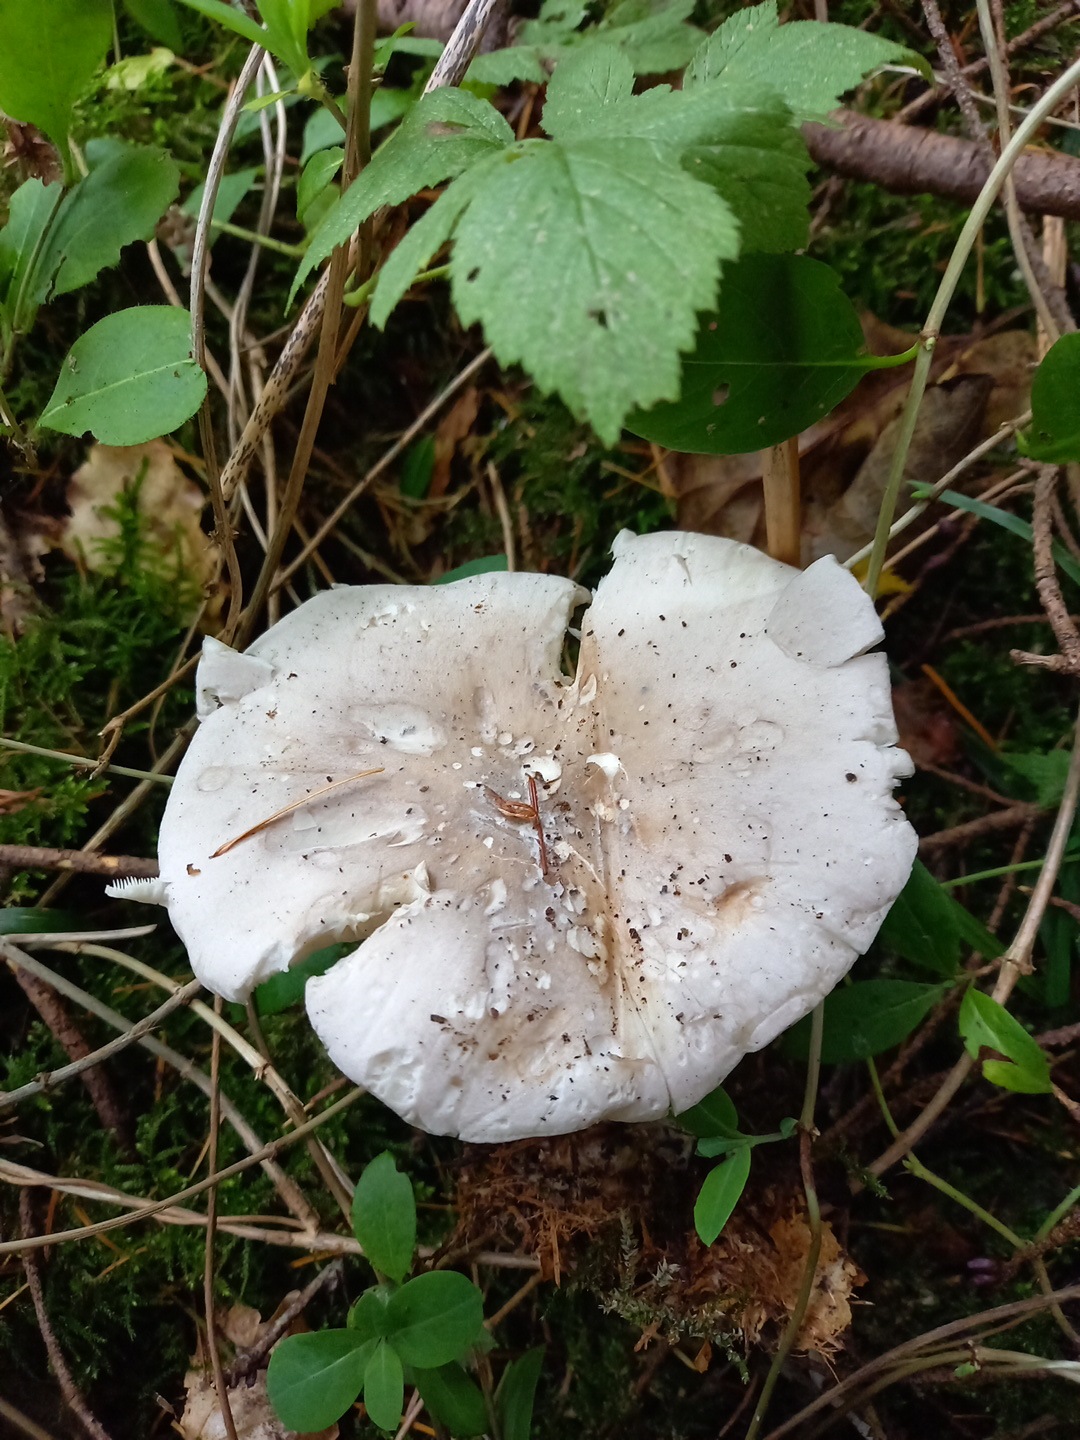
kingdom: Fungi
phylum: Basidiomycota
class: Agaricomycetes
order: Agaricales
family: Tricholomataceae
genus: Clitocybe
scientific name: Clitocybe nebularis
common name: tåge-tragthat
